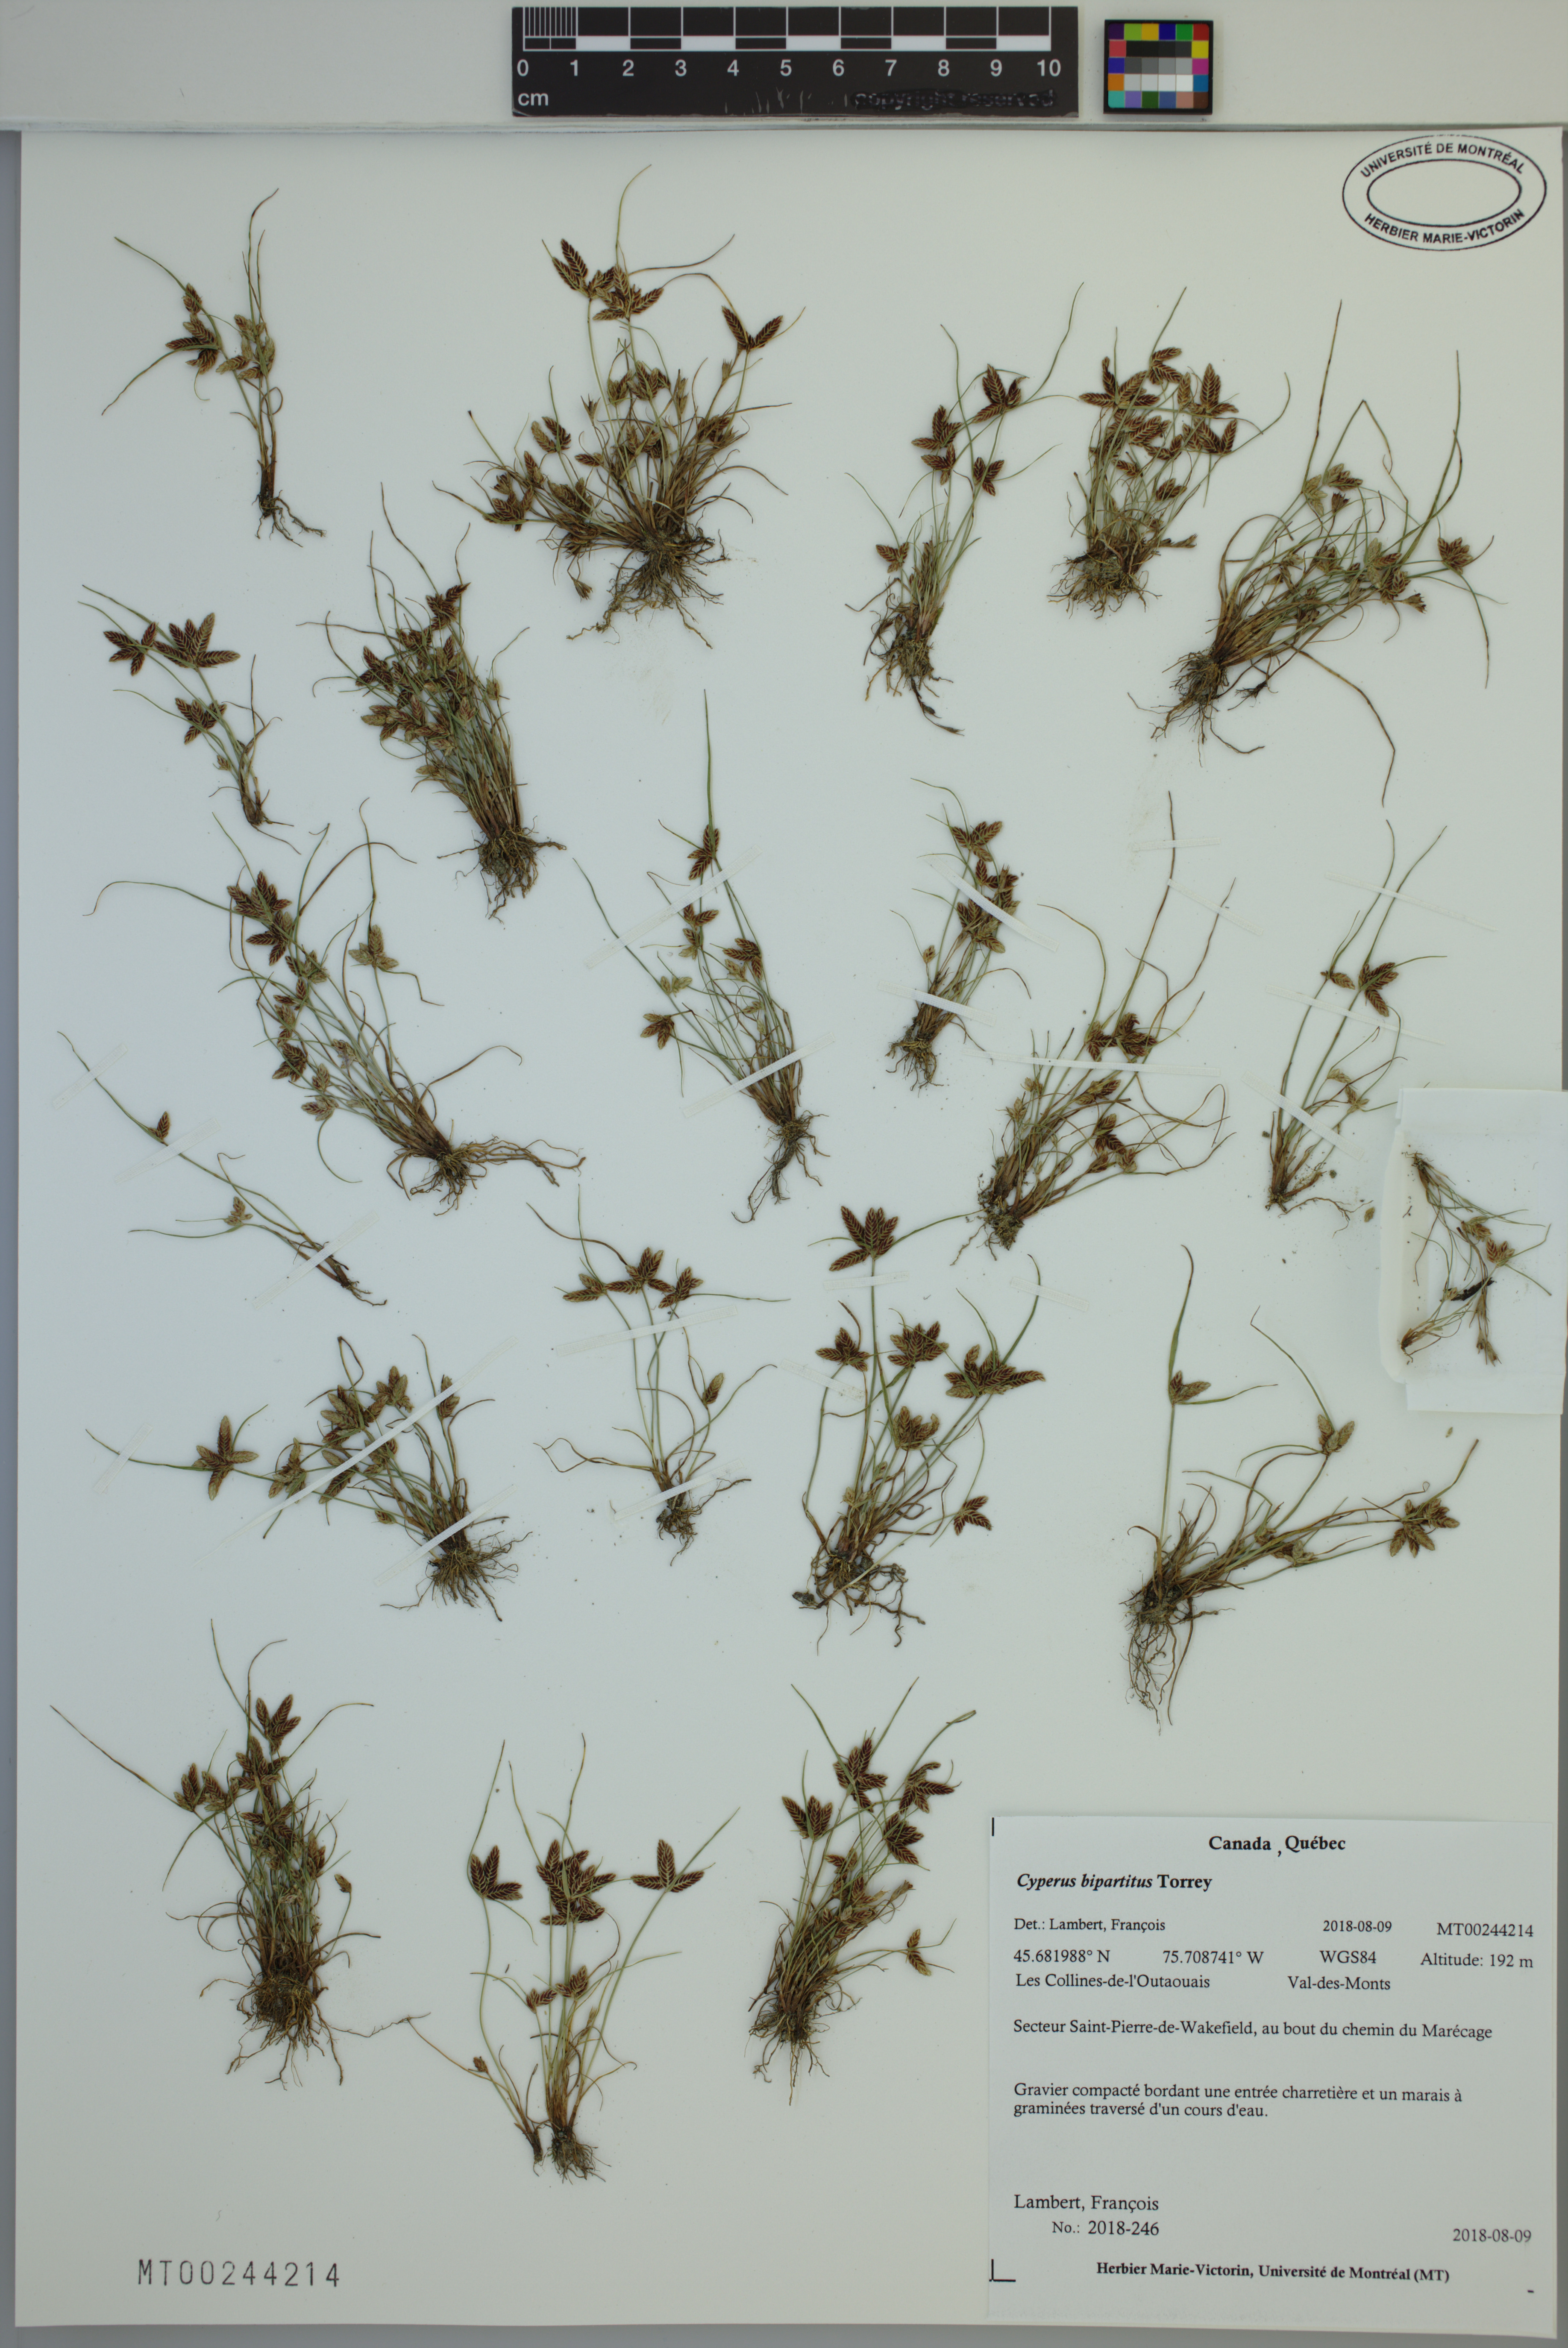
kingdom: Plantae
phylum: Tracheophyta
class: Liliopsida
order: Poales
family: Cyperaceae
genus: Cyperus
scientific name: Cyperus bipartitus
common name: Brook flatsedge
